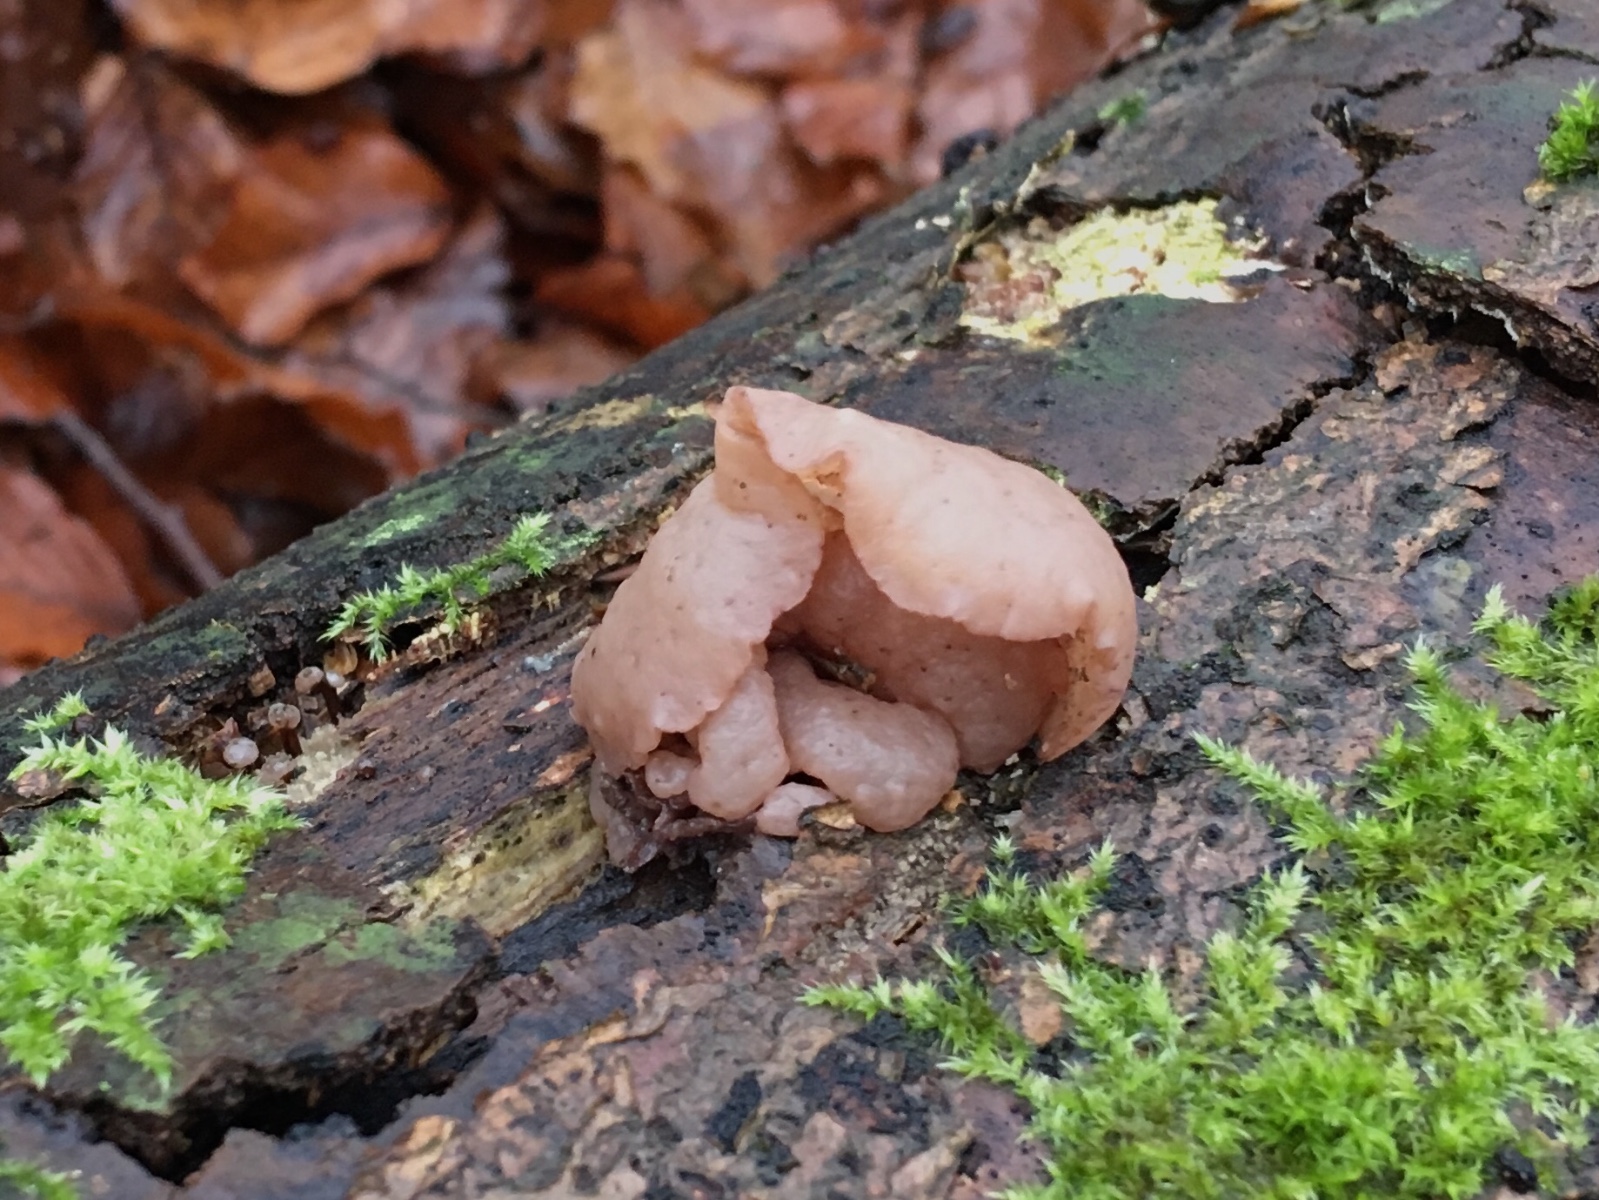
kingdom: Fungi
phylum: Ascomycota
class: Leotiomycetes
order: Helotiales
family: Gelatinodiscaceae
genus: Neobulgaria
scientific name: Neobulgaria pura
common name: bleg bævreskive
